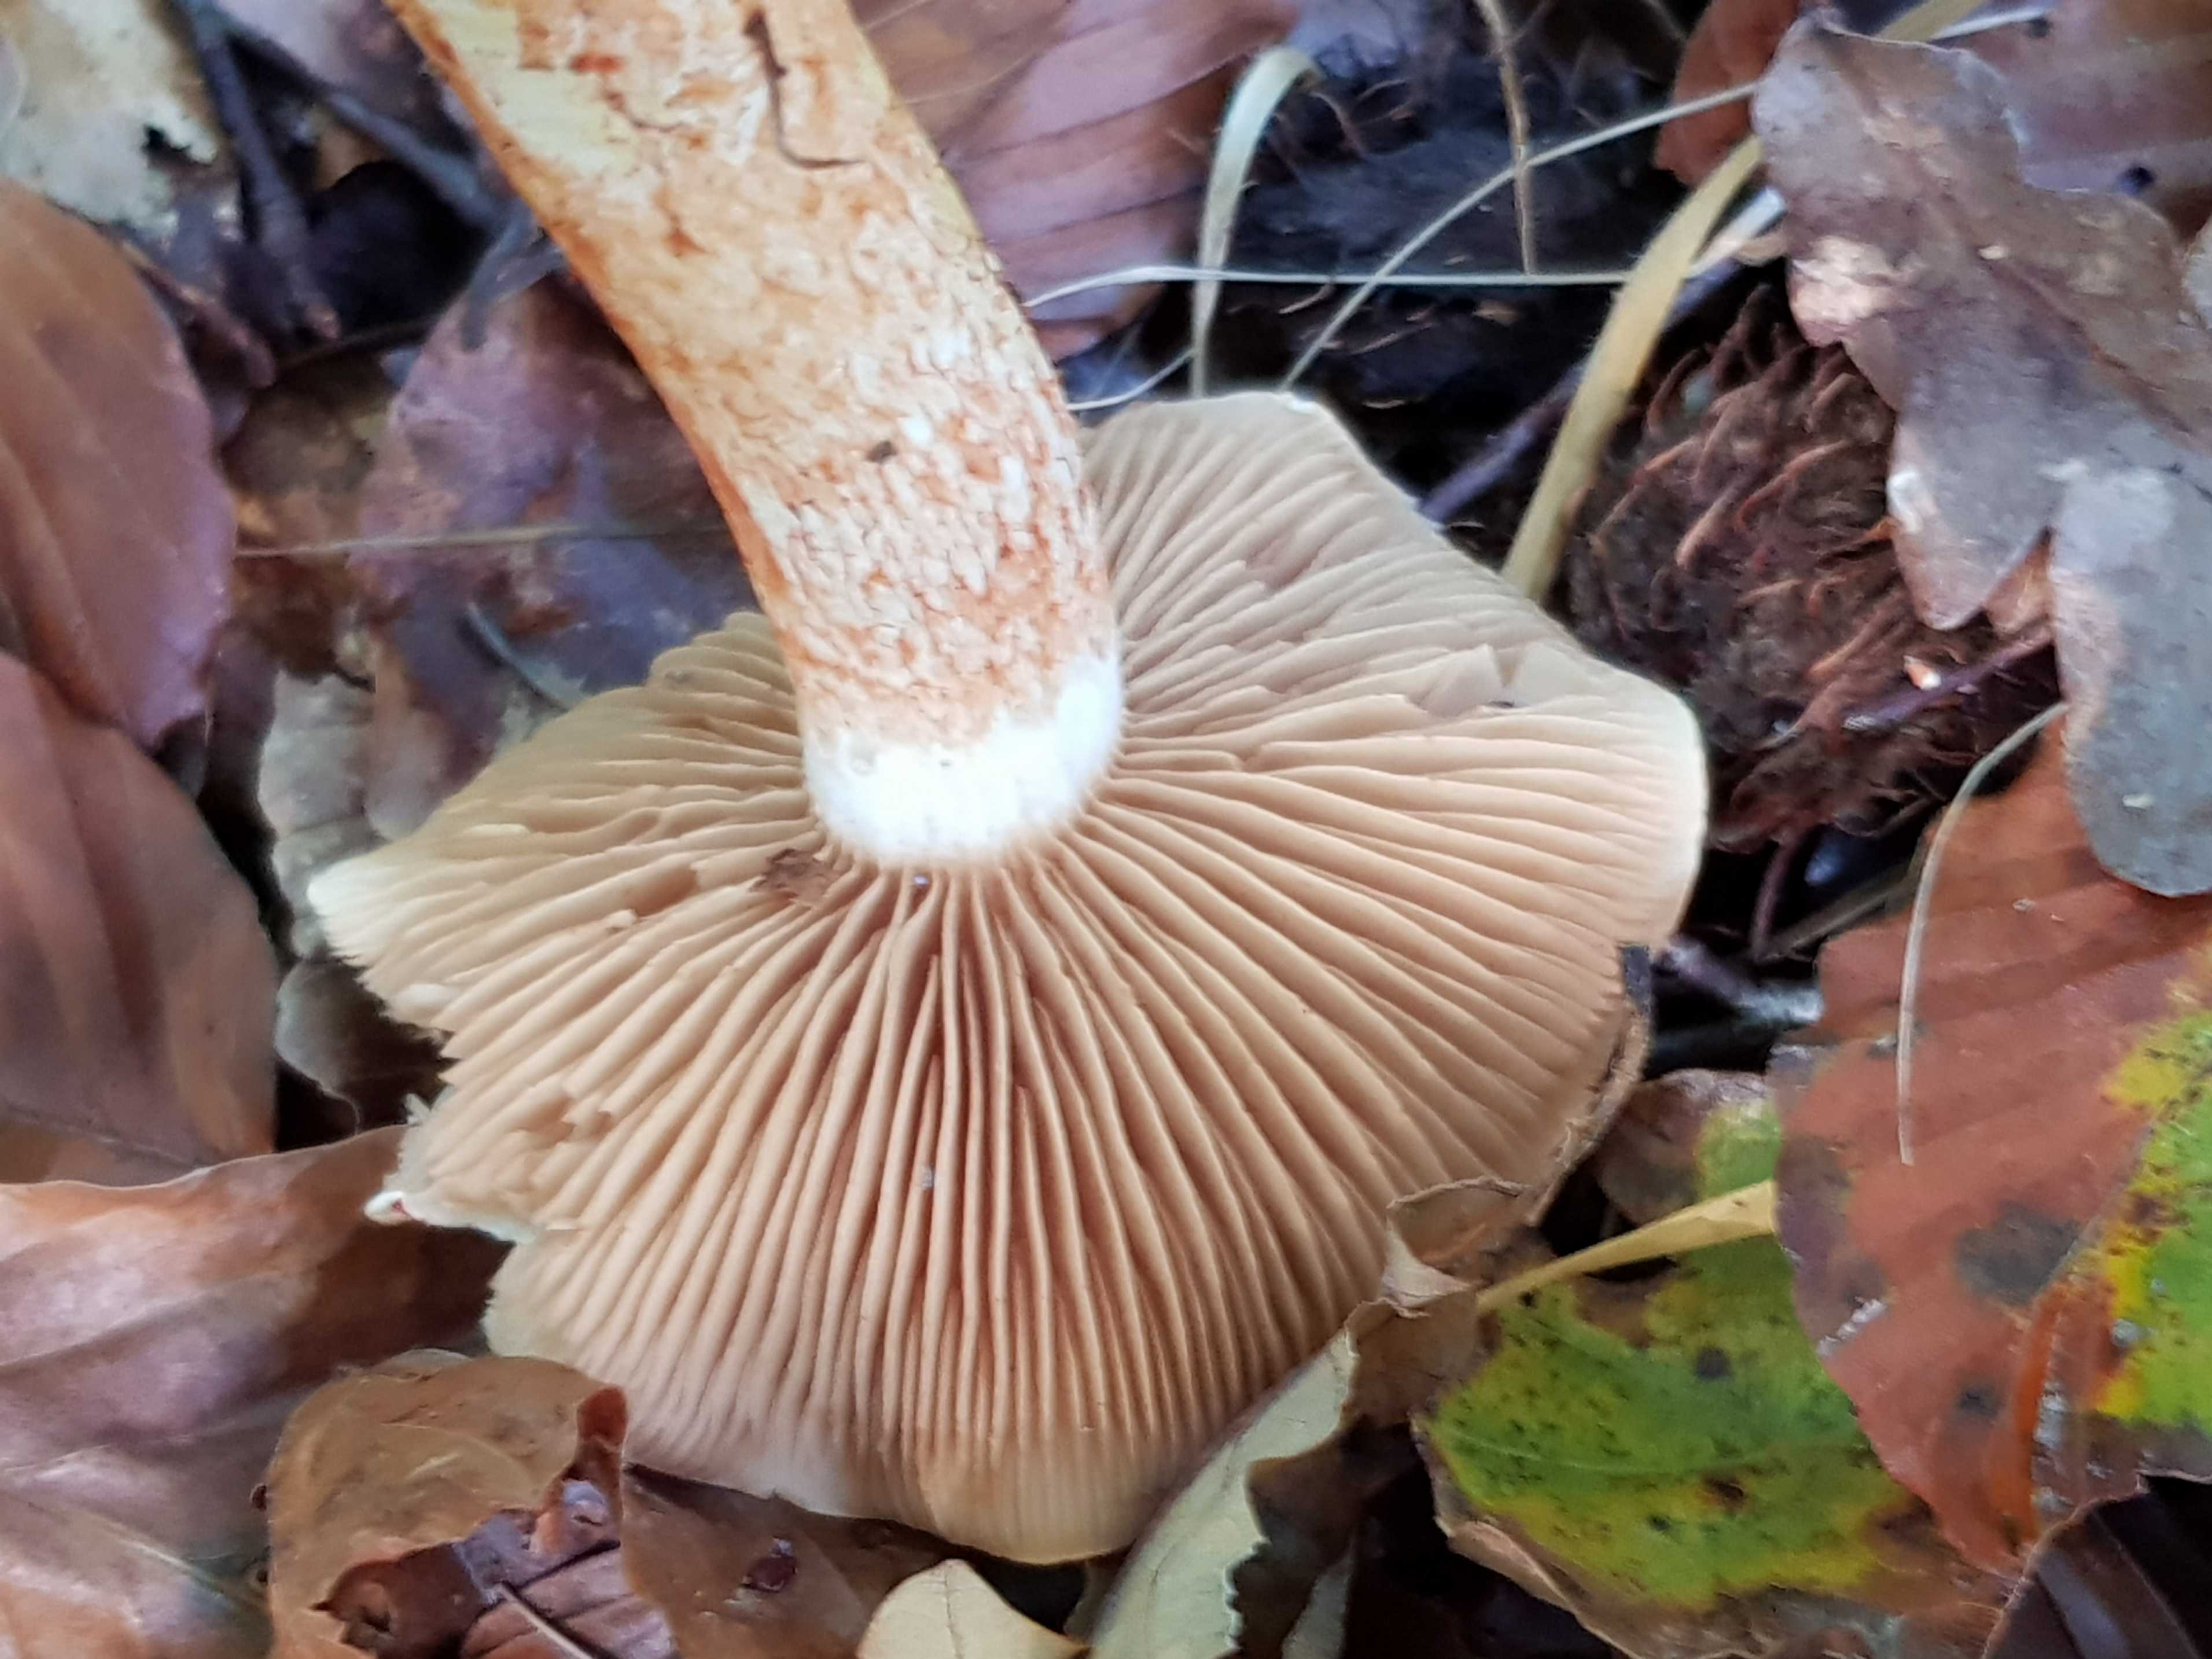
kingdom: Fungi
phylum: Basidiomycota
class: Agaricomycetes
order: Agaricales
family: Cortinariaceae
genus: Cortinarius
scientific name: Cortinarius bolaris
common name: cinnoberskællet slørhat
